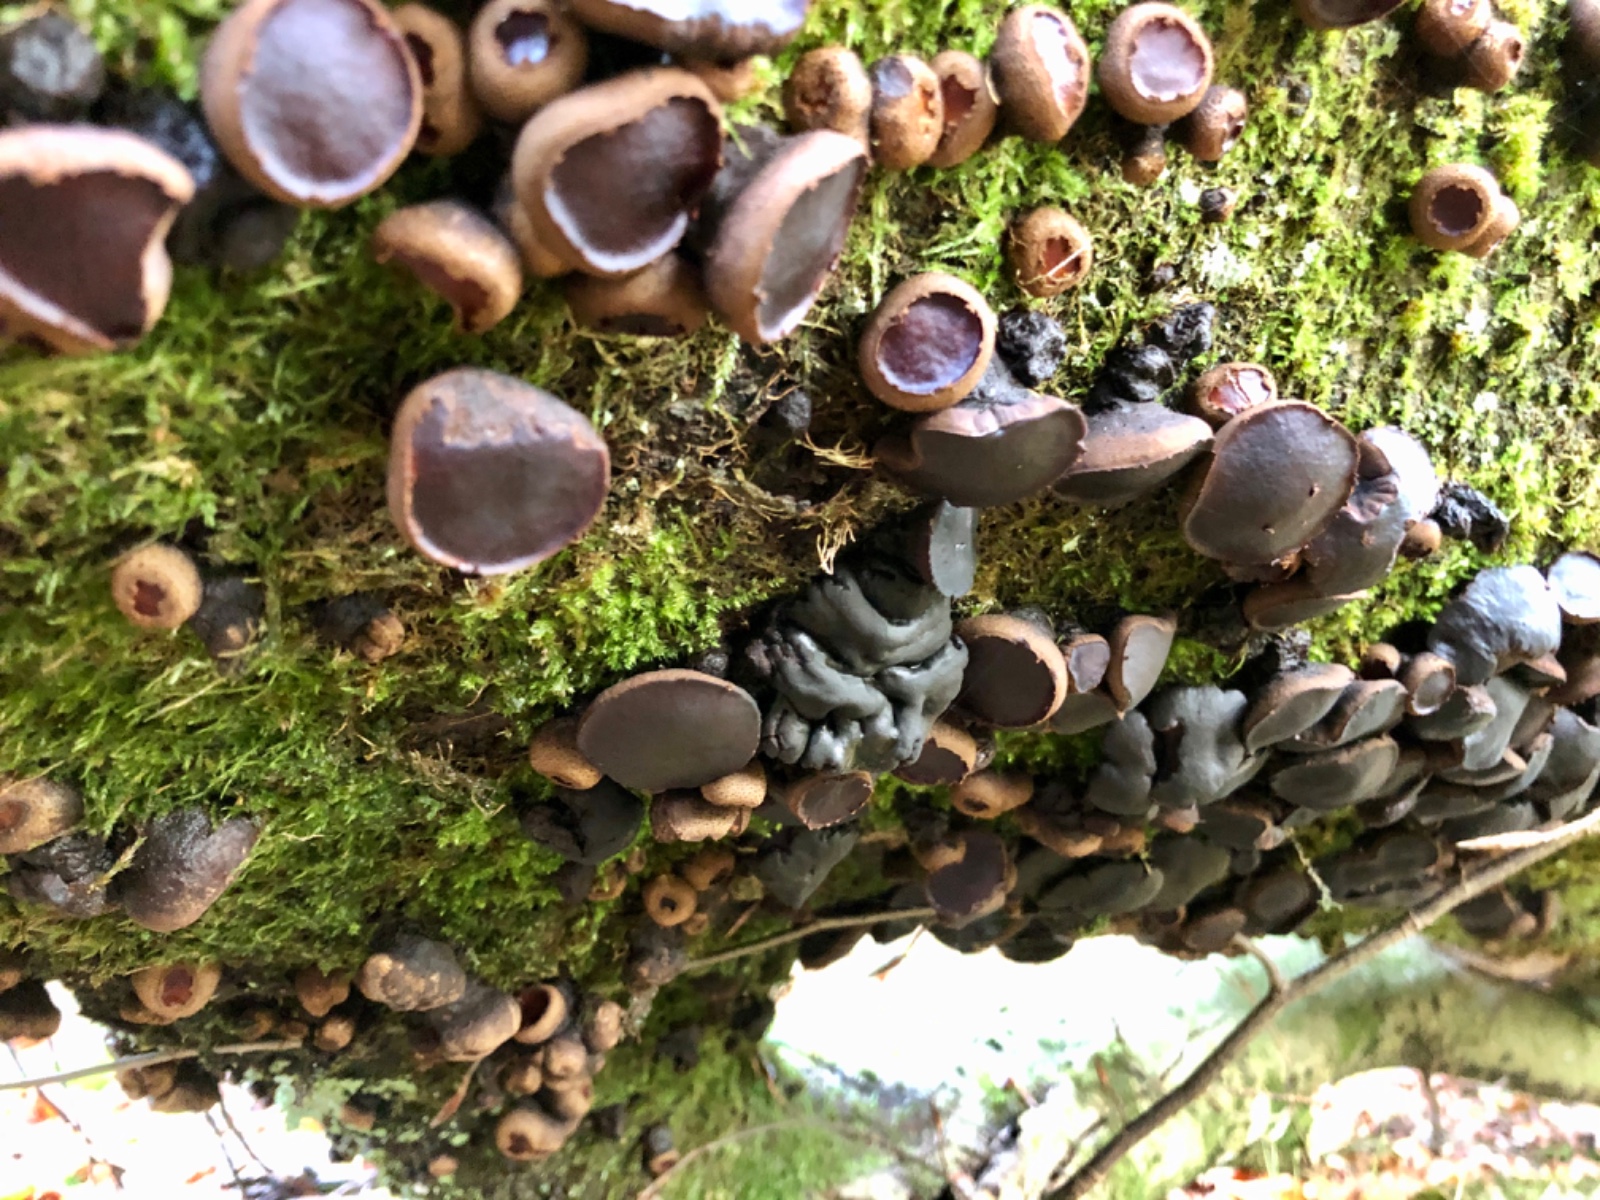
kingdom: Fungi
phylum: Ascomycota
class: Leotiomycetes
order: Phacidiales
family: Phacidiaceae
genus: Bulgaria
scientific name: Bulgaria inquinans
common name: afsmittende topsvamp
